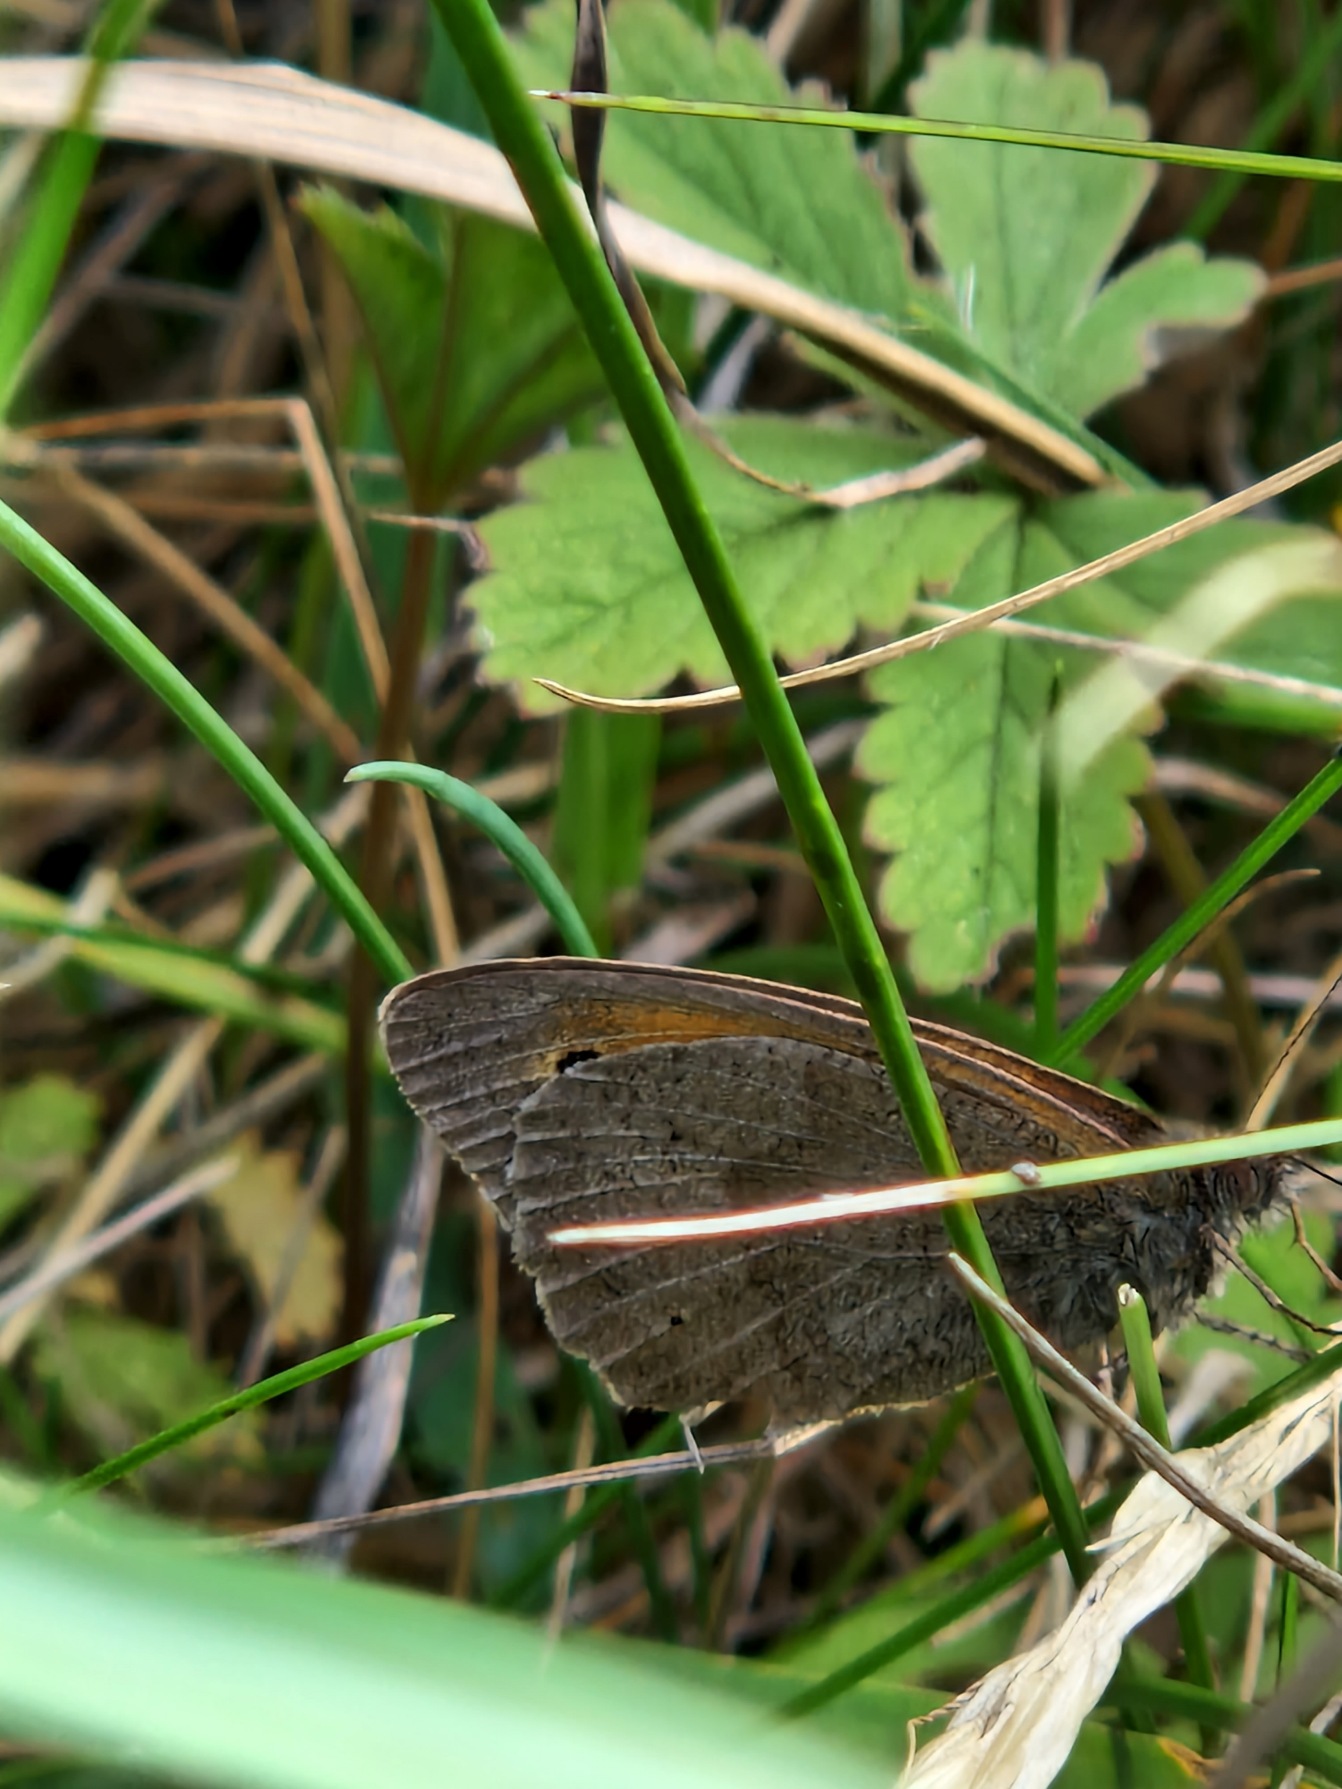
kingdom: Animalia
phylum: Arthropoda
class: Insecta
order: Lepidoptera
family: Nymphalidae
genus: Maniola
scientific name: Maniola jurtina
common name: Græsrandøje
